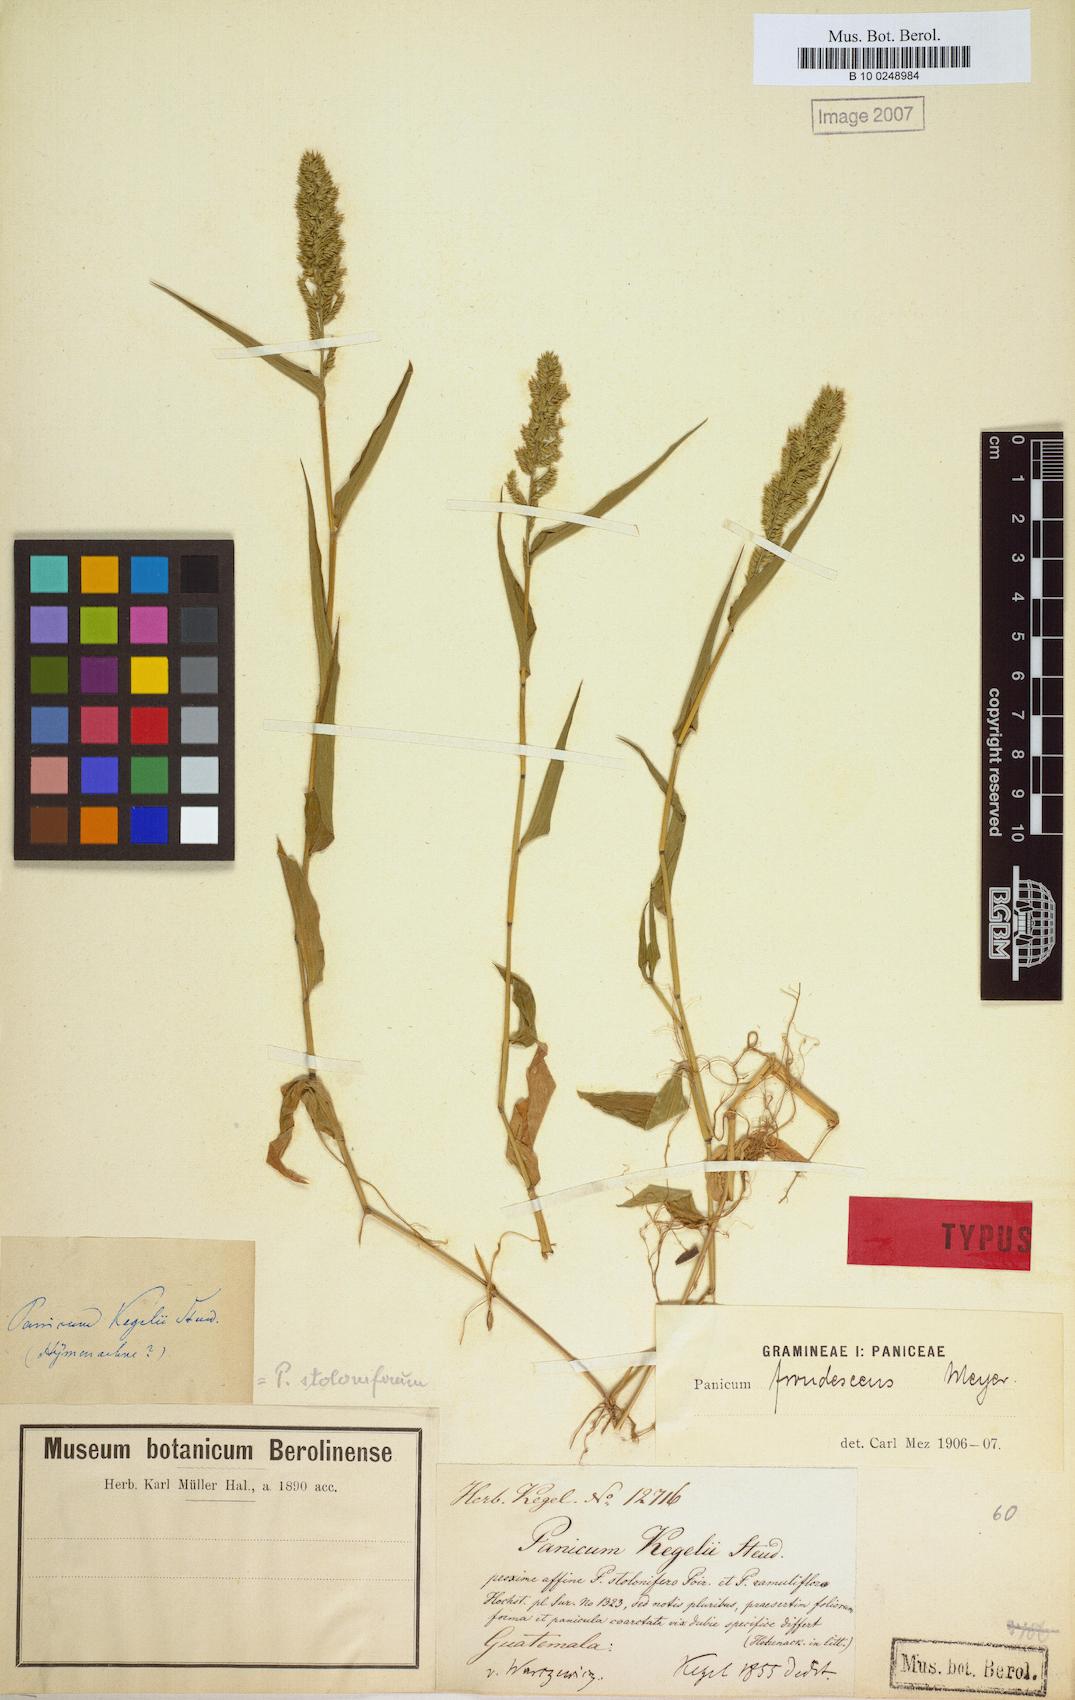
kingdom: Plantae
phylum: Tracheophyta
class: Liliopsida
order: Poales
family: Poaceae
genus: Ocellochloa
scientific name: Ocellochloa stolonifera
